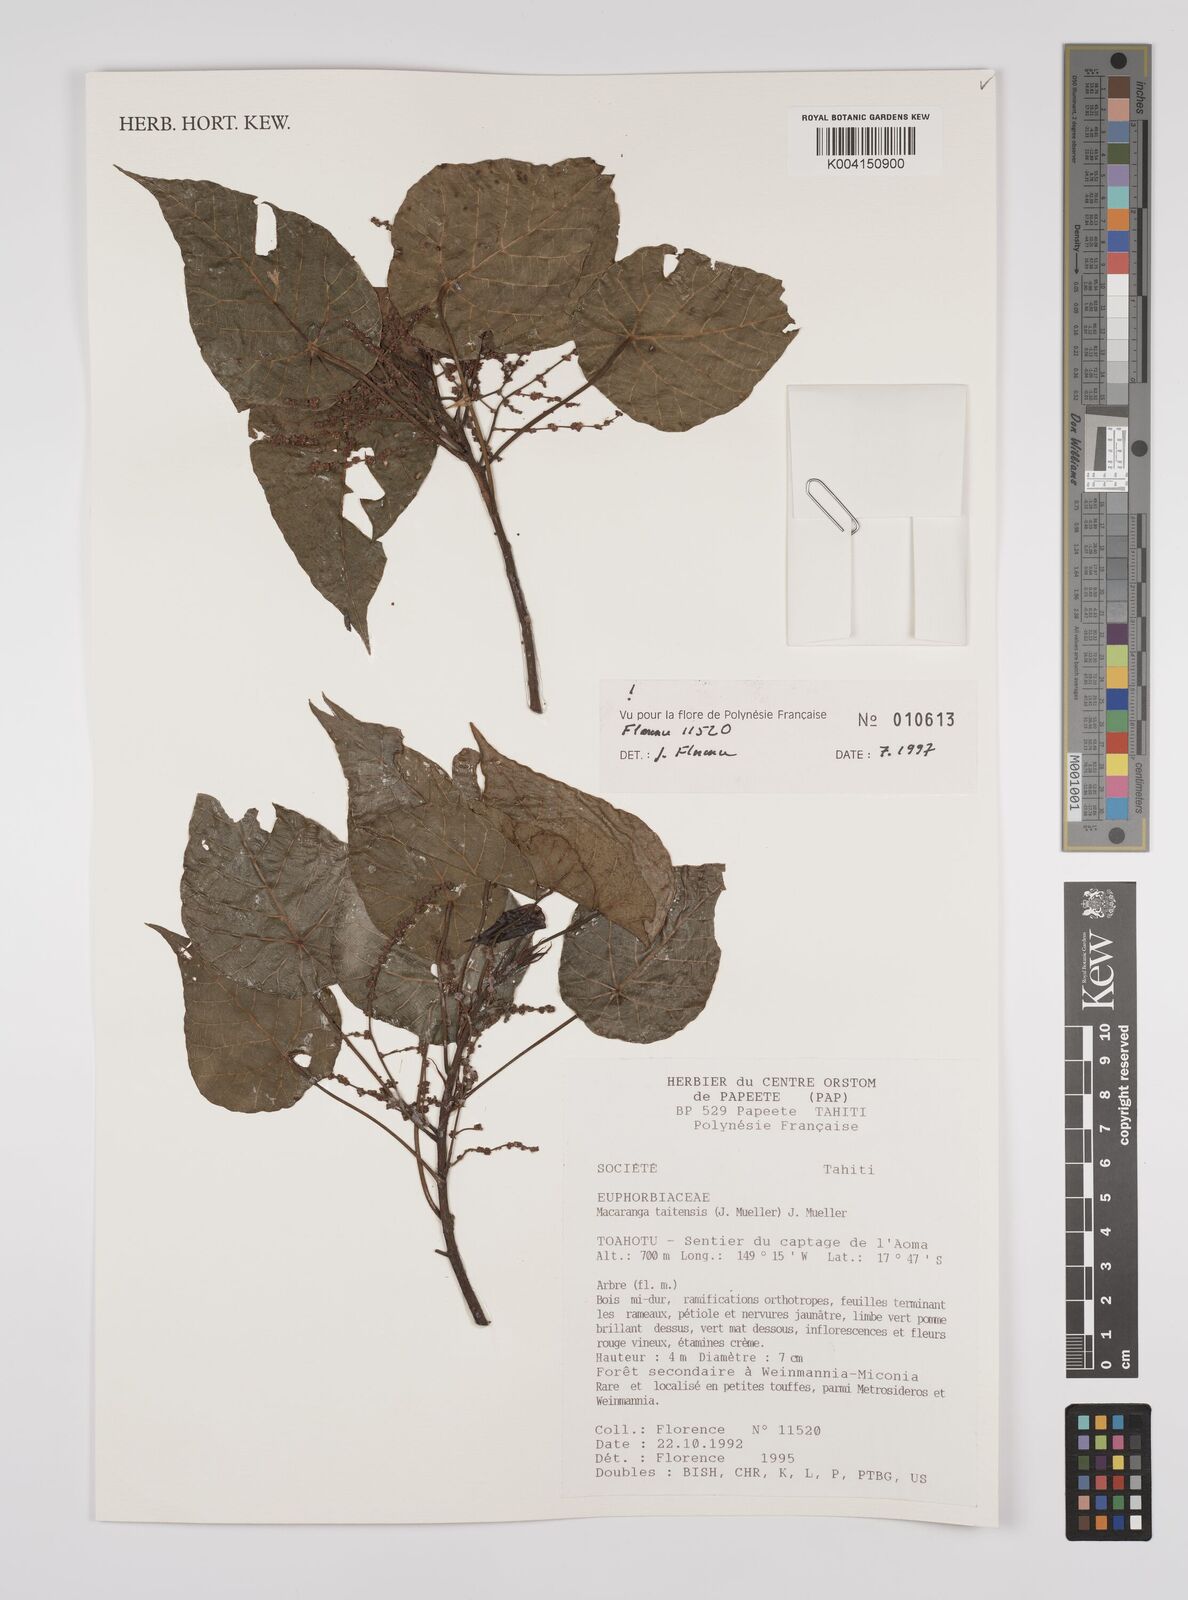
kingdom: Plantae
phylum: Tracheophyta
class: Magnoliopsida
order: Malpighiales
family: Euphorbiaceae
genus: Macaranga
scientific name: Macaranga taitensis
